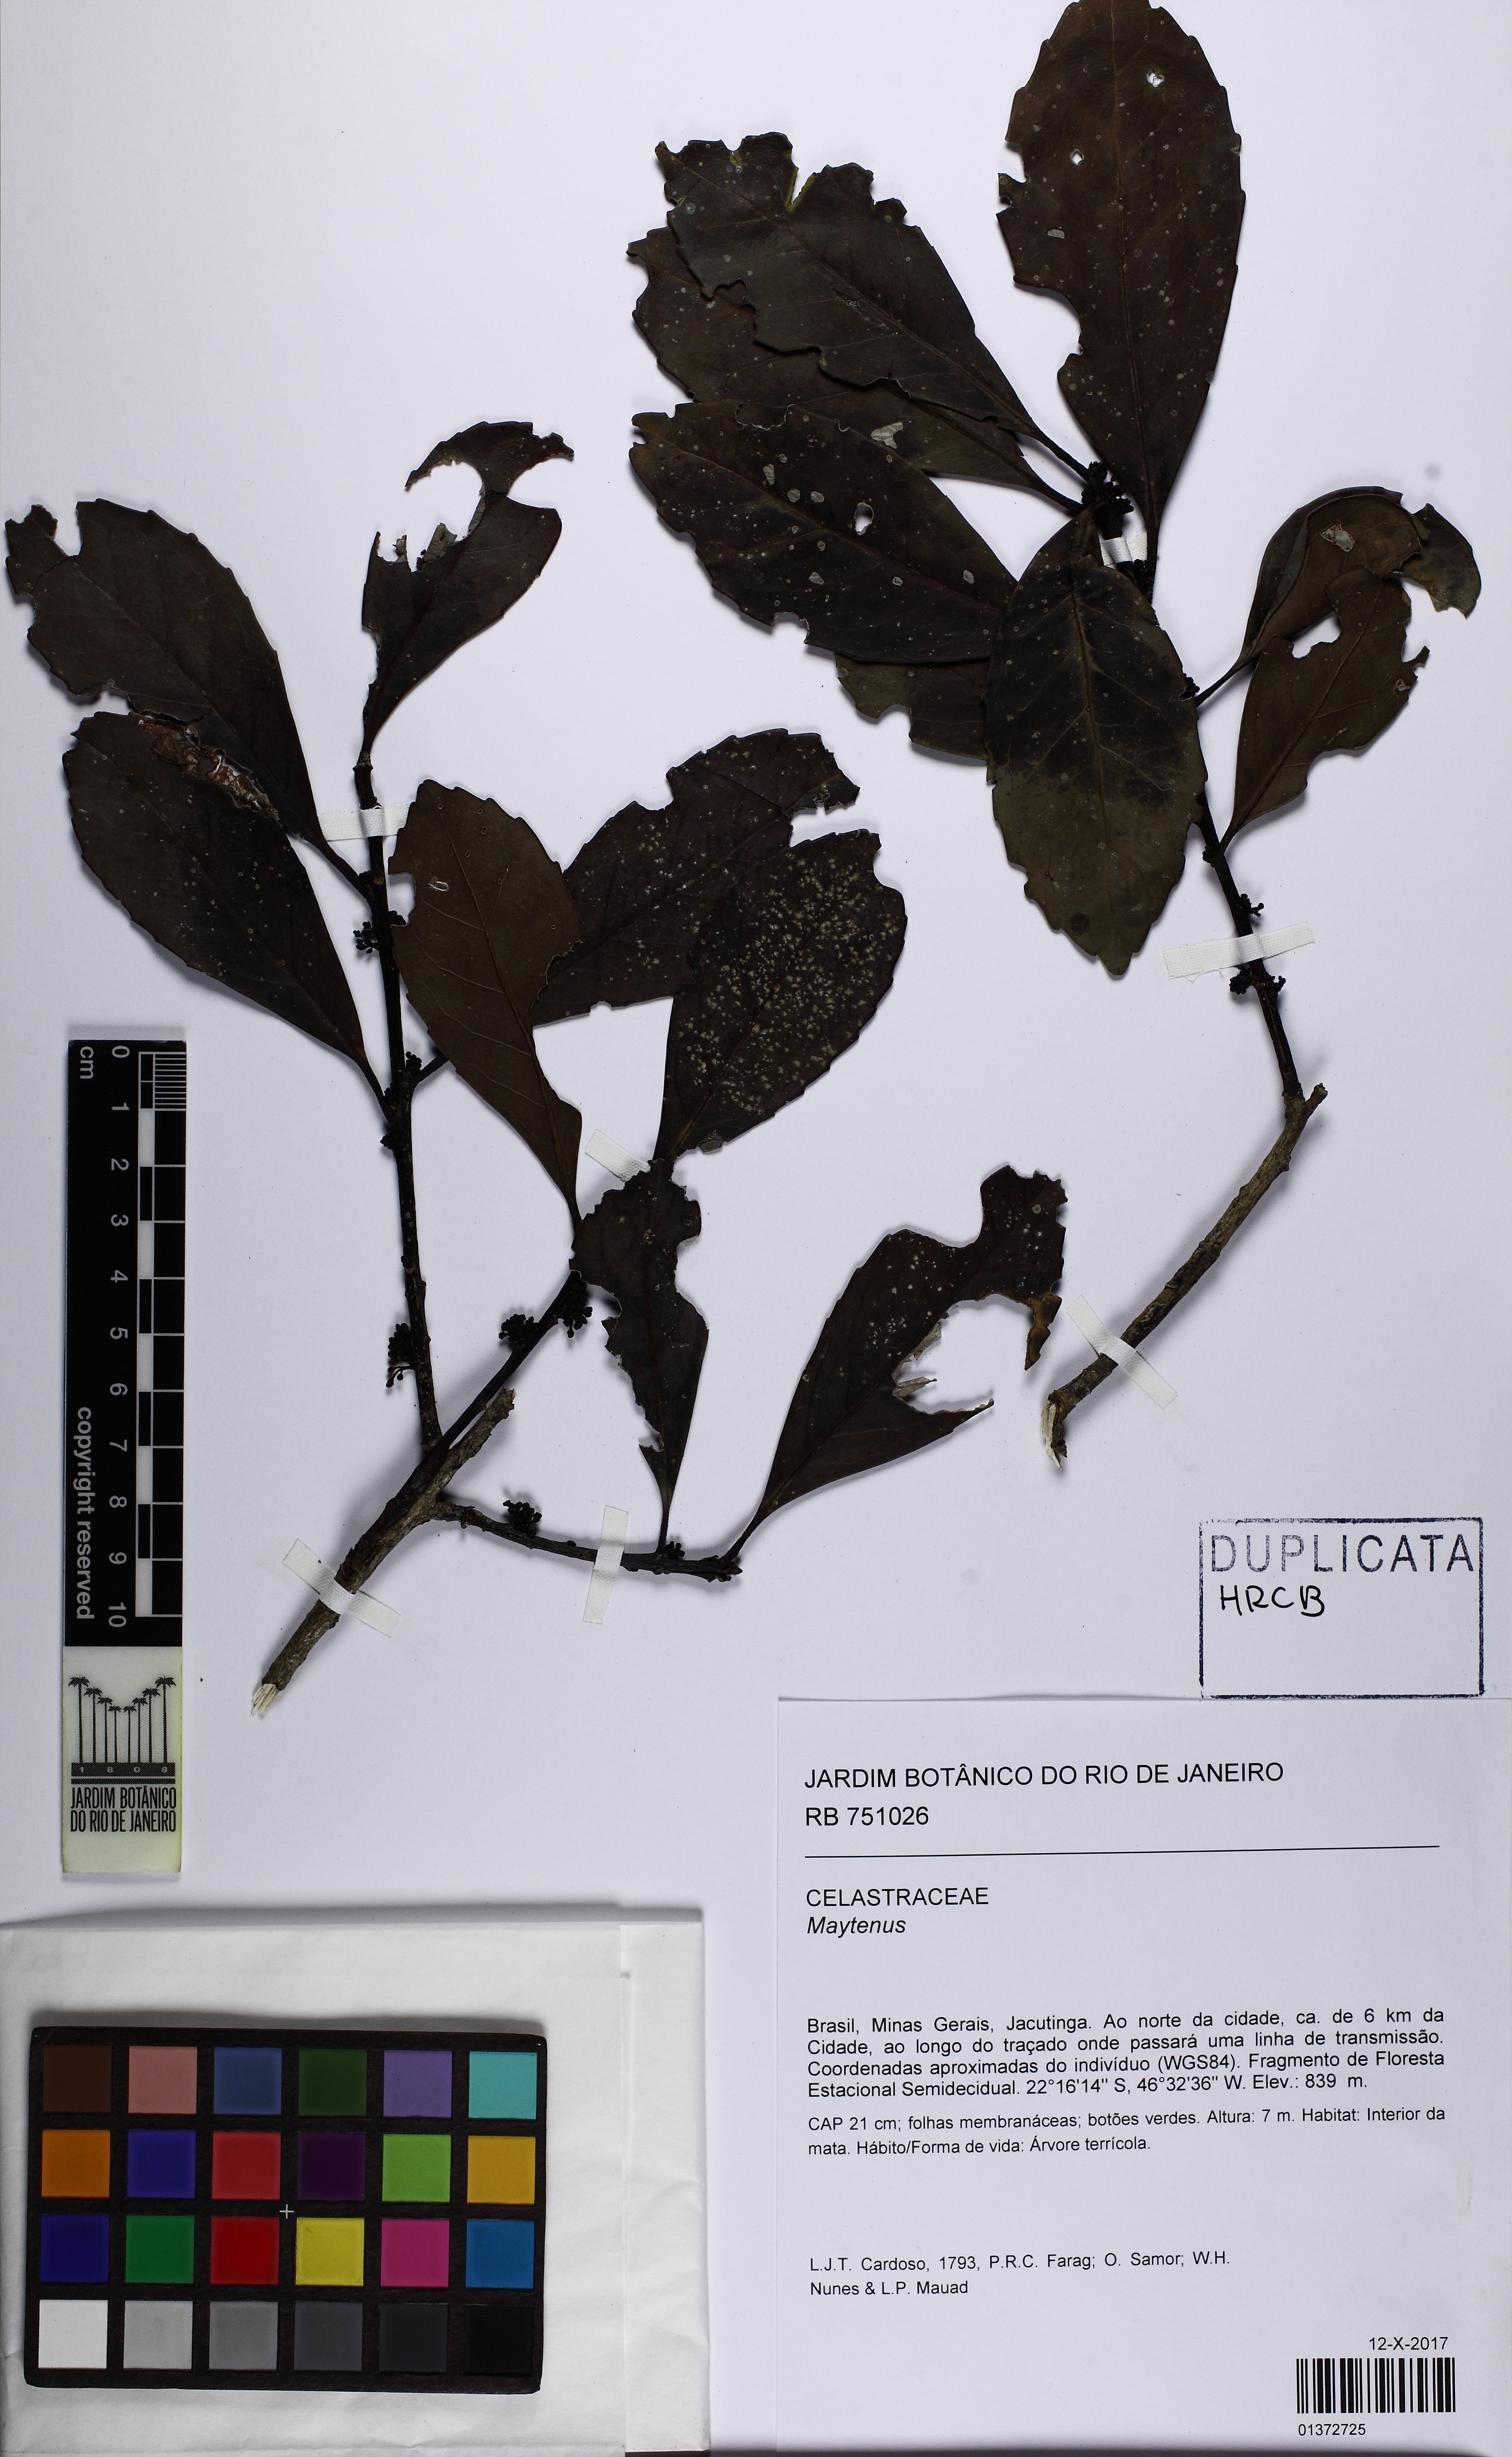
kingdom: Plantae
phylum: Tracheophyta
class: Magnoliopsida
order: Celastrales
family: Celastraceae
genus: Maytenus
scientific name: Maytenus
